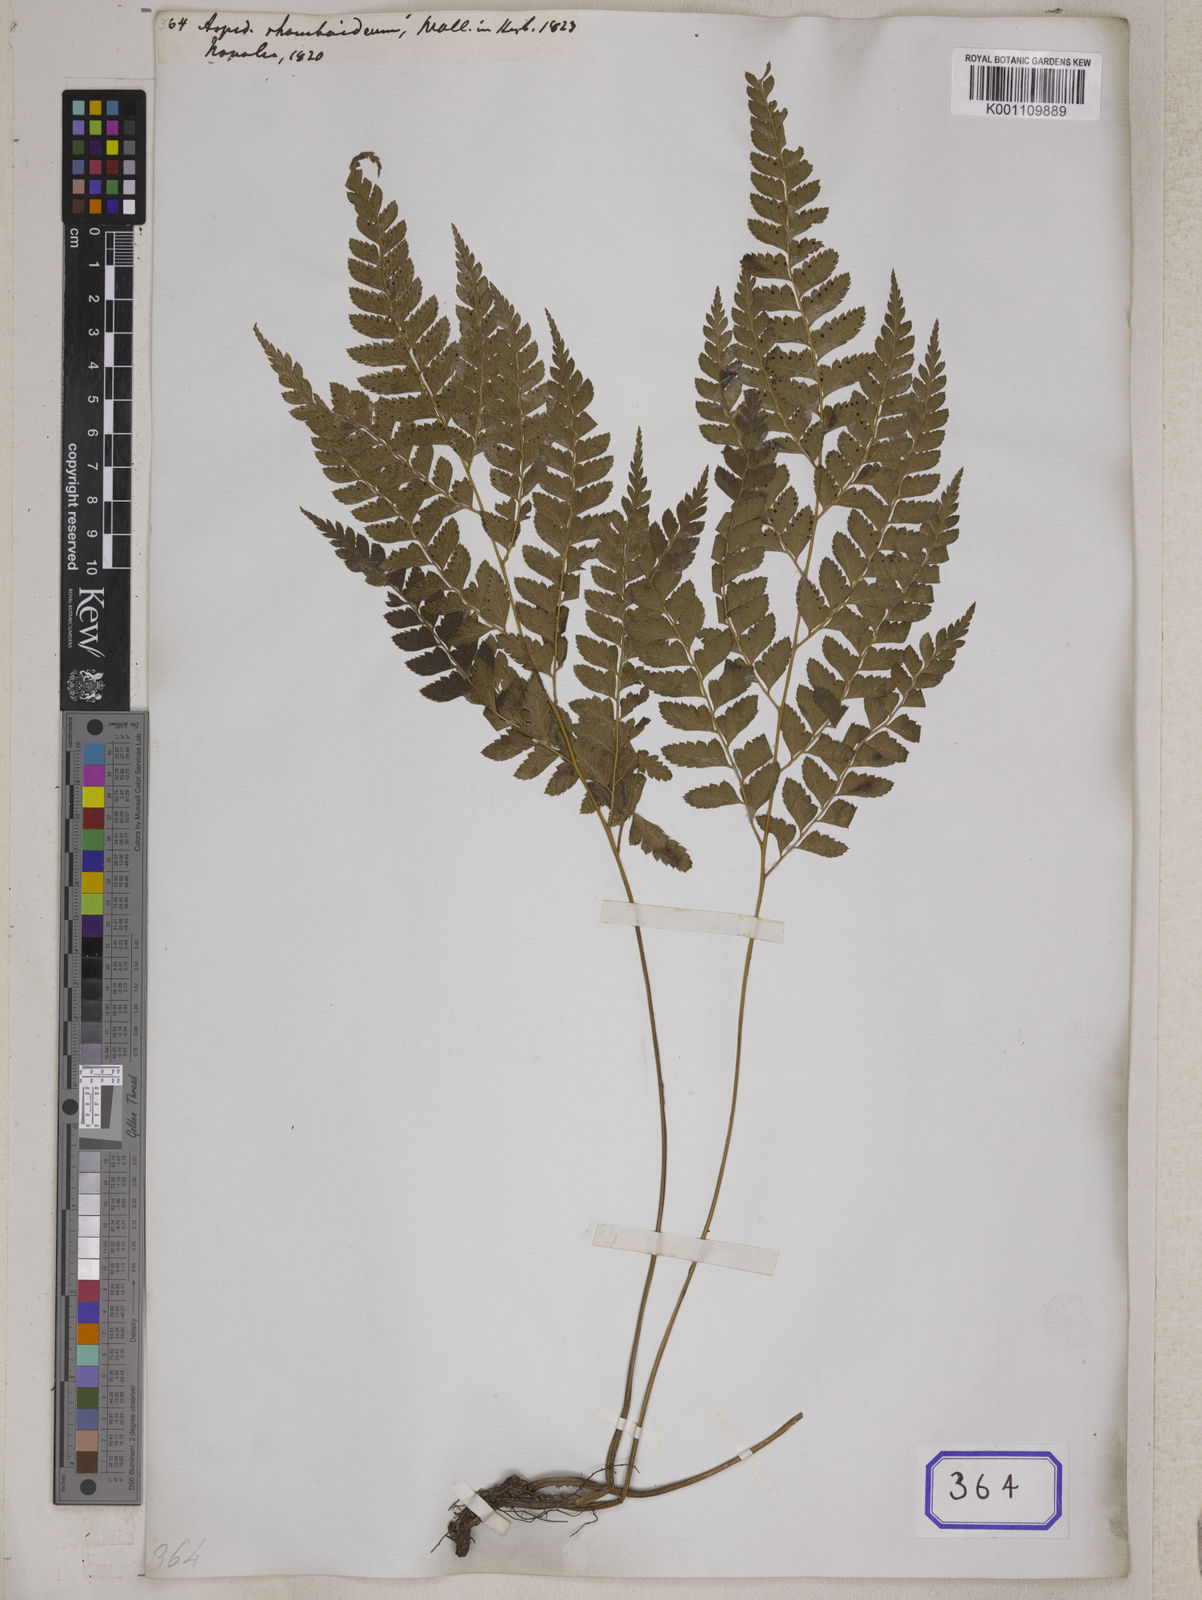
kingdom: Plantae
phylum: Tracheophyta
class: Polypodiopsida
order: Polypodiales
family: Dryopteridaceae
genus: Arachniodes
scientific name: Arachniodes rhomboidea
